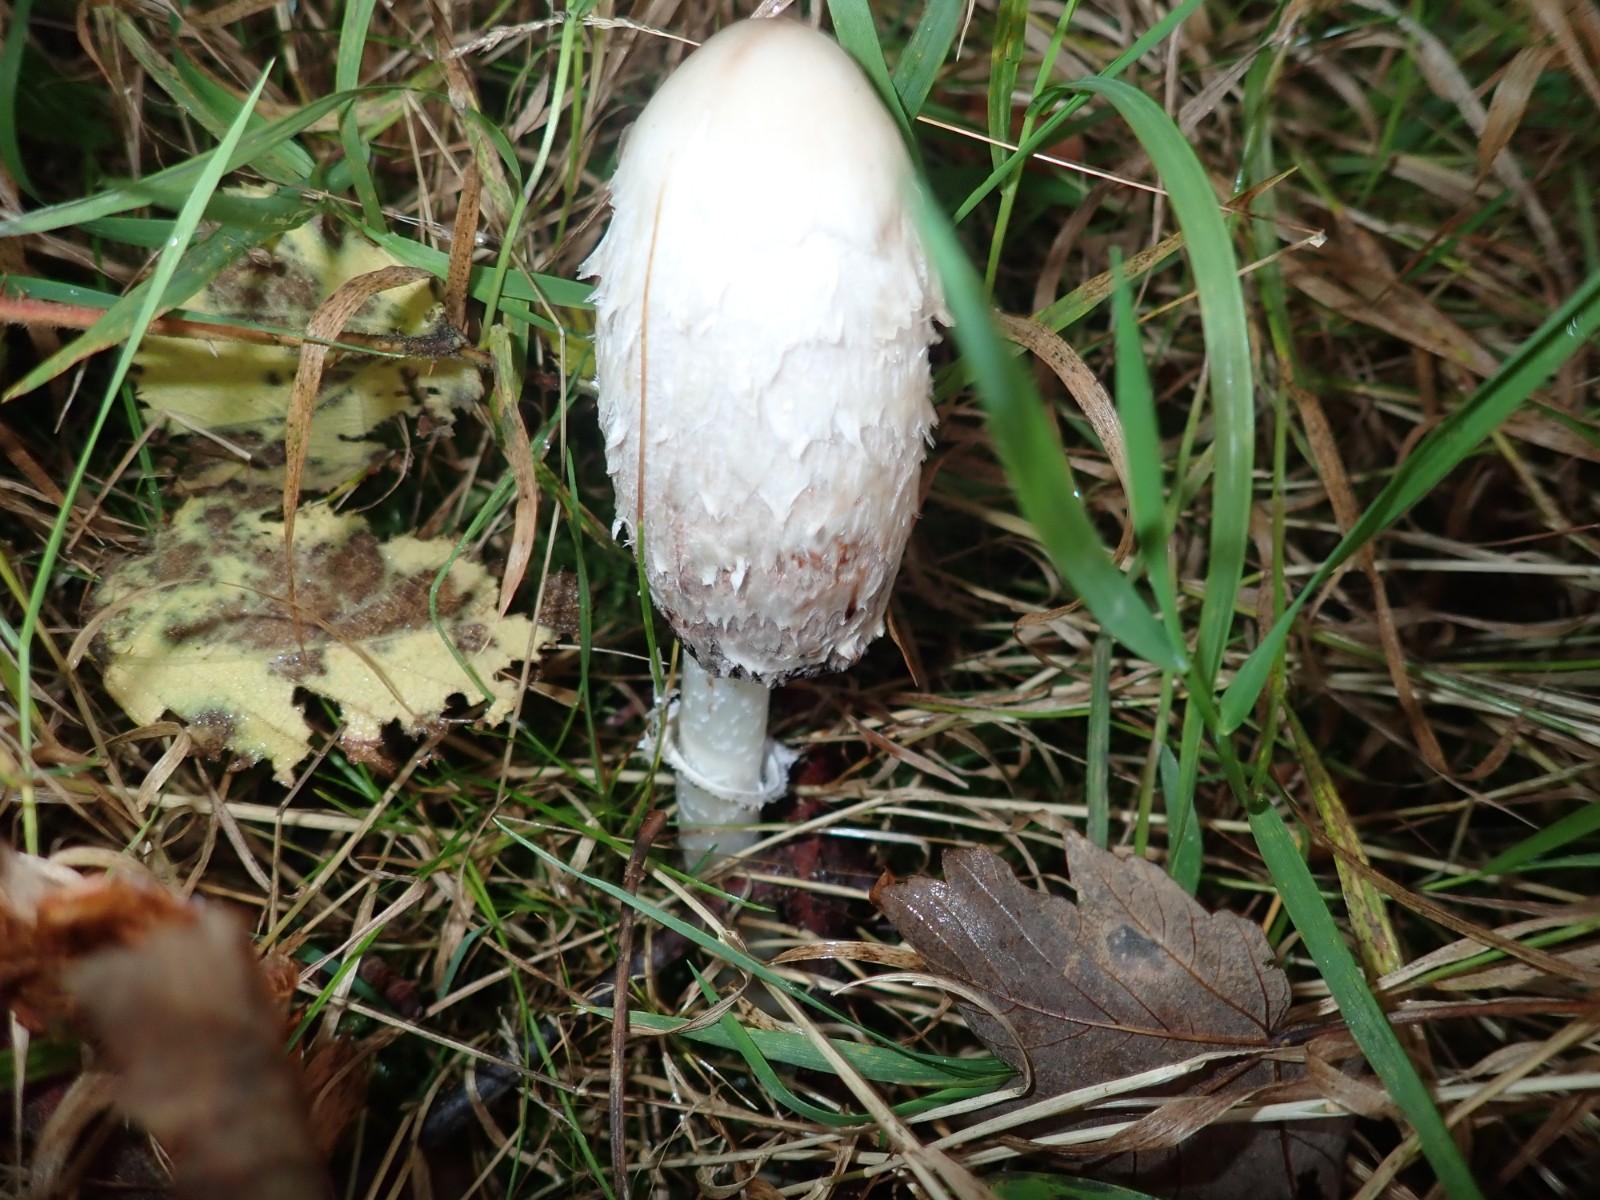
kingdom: Fungi
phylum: Basidiomycota
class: Agaricomycetes
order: Agaricales
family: Agaricaceae
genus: Coprinus
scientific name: Coprinus comatus
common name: stor parykhat
